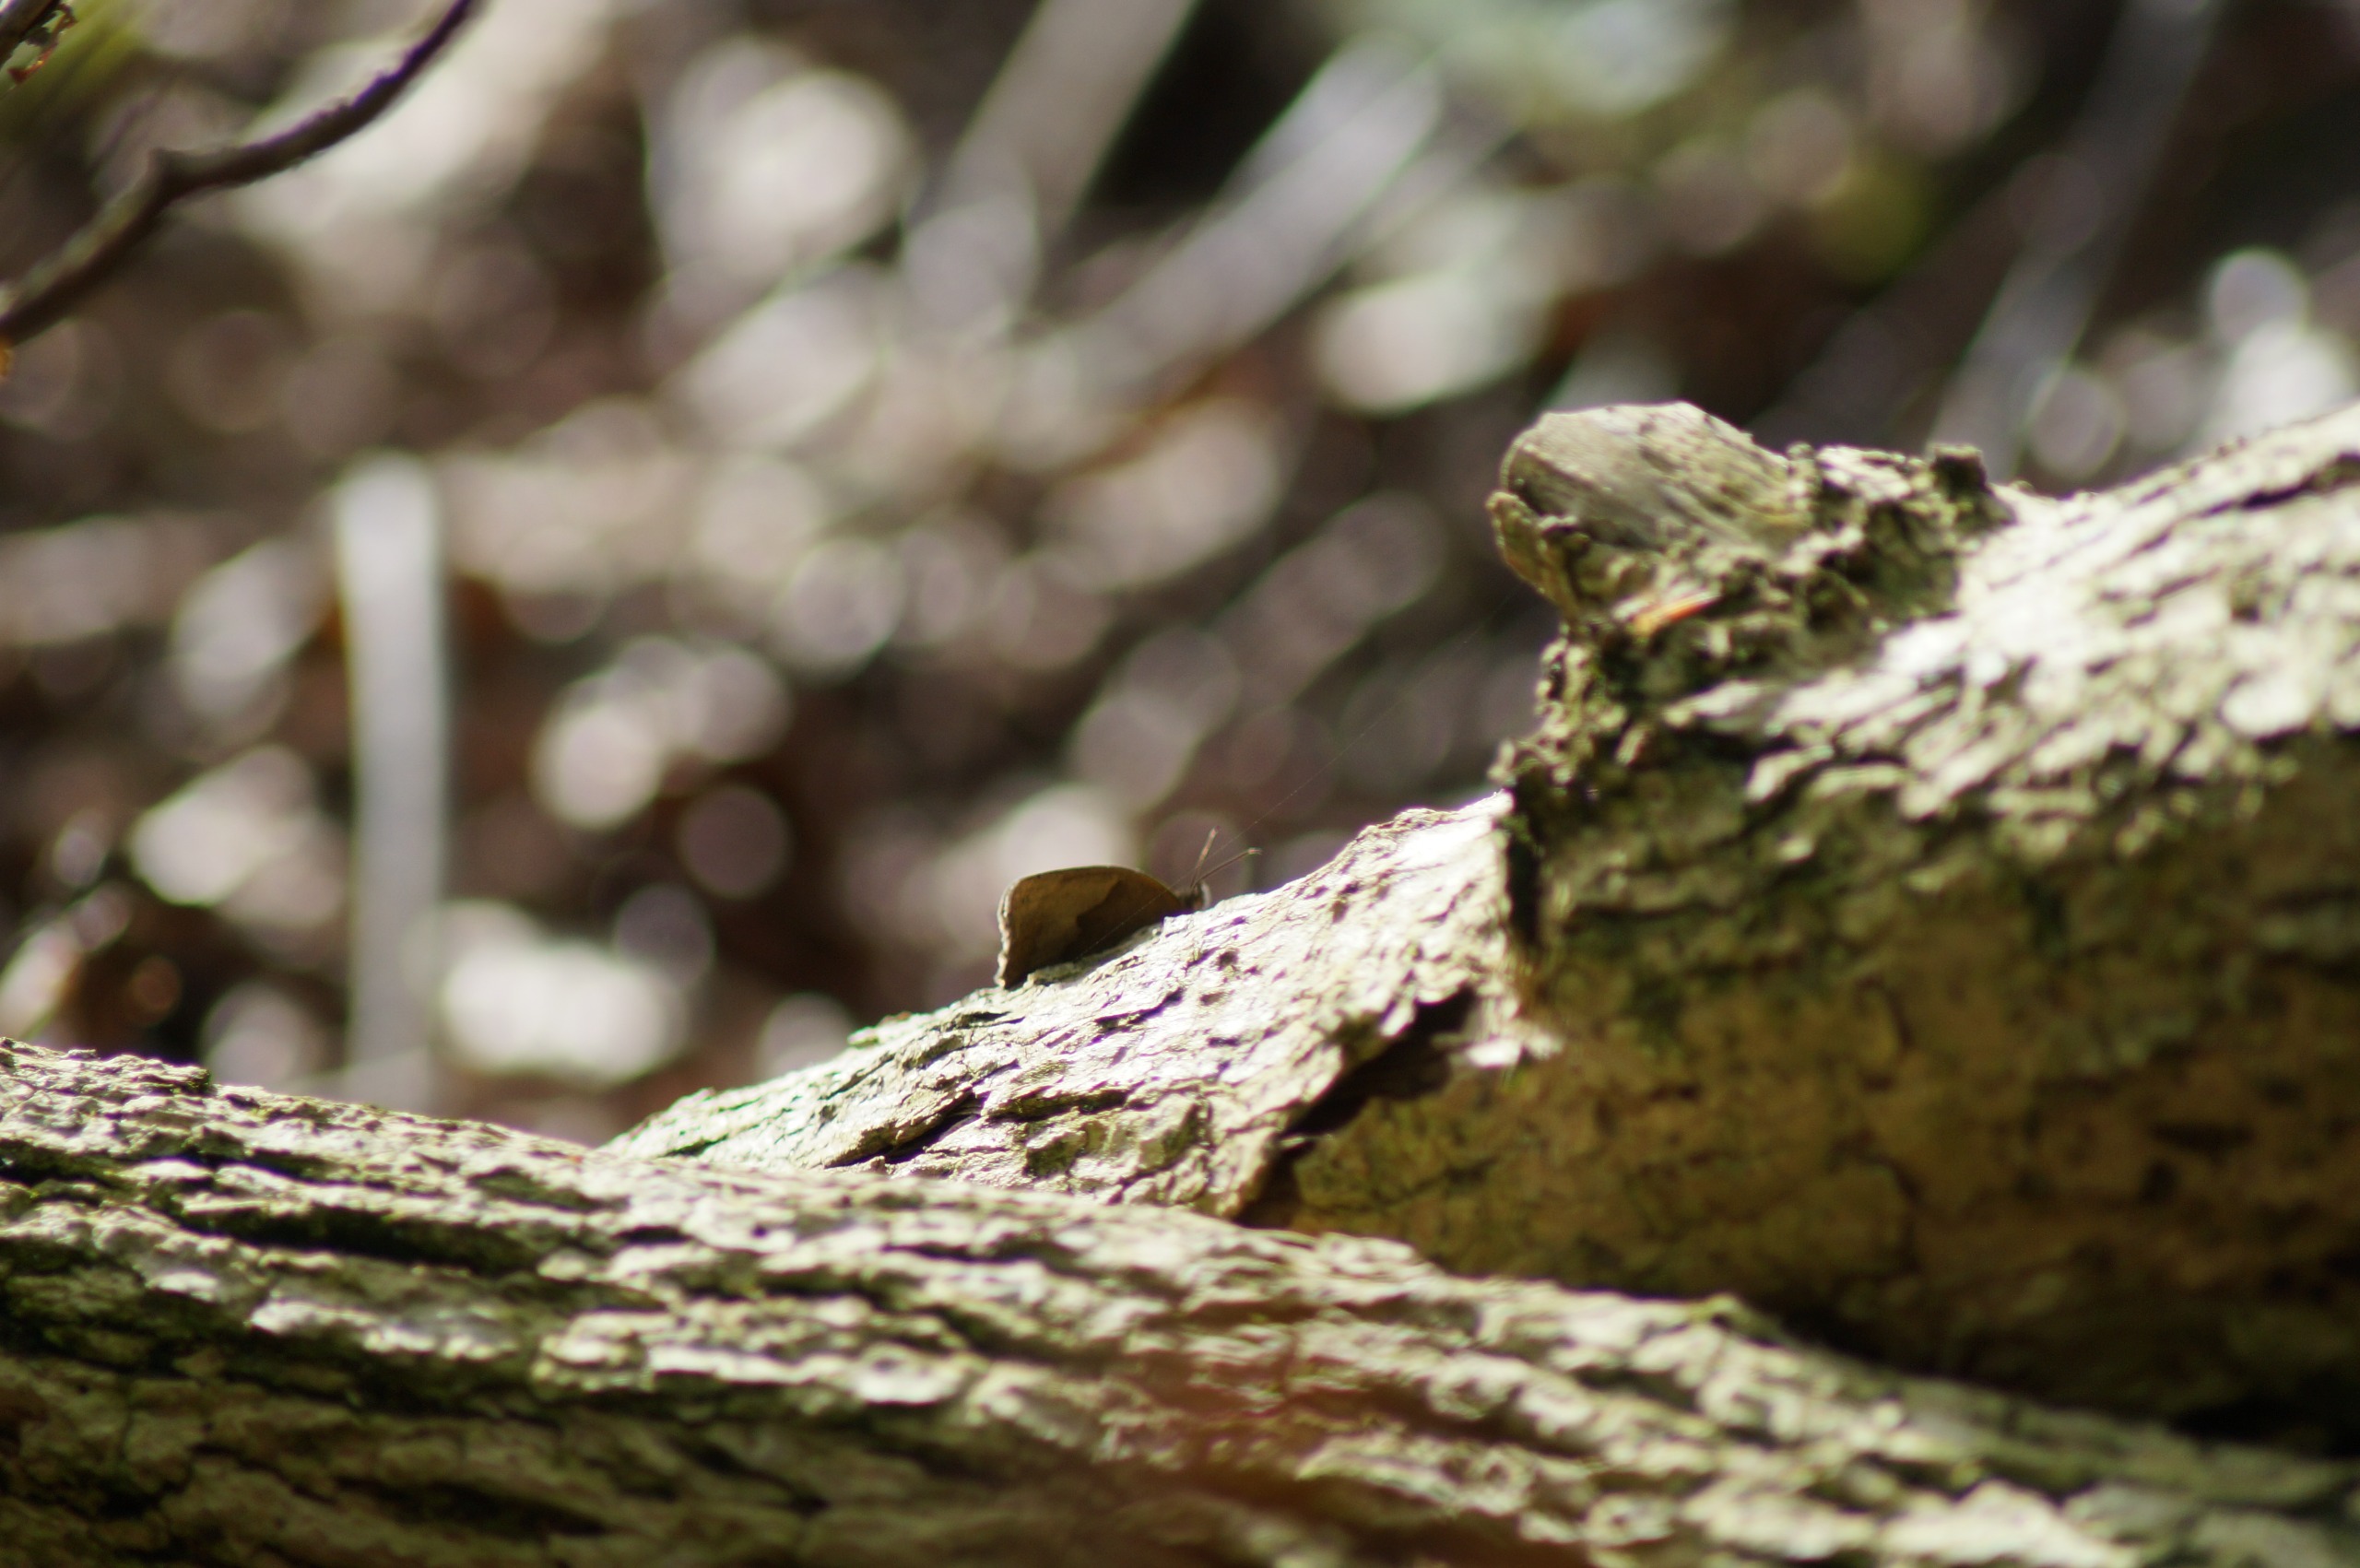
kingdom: Animalia
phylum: Arthropoda
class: Insecta
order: Lepidoptera
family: Nymphalidae
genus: Maniola
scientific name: Maniola jurtina
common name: Græsrandøje
